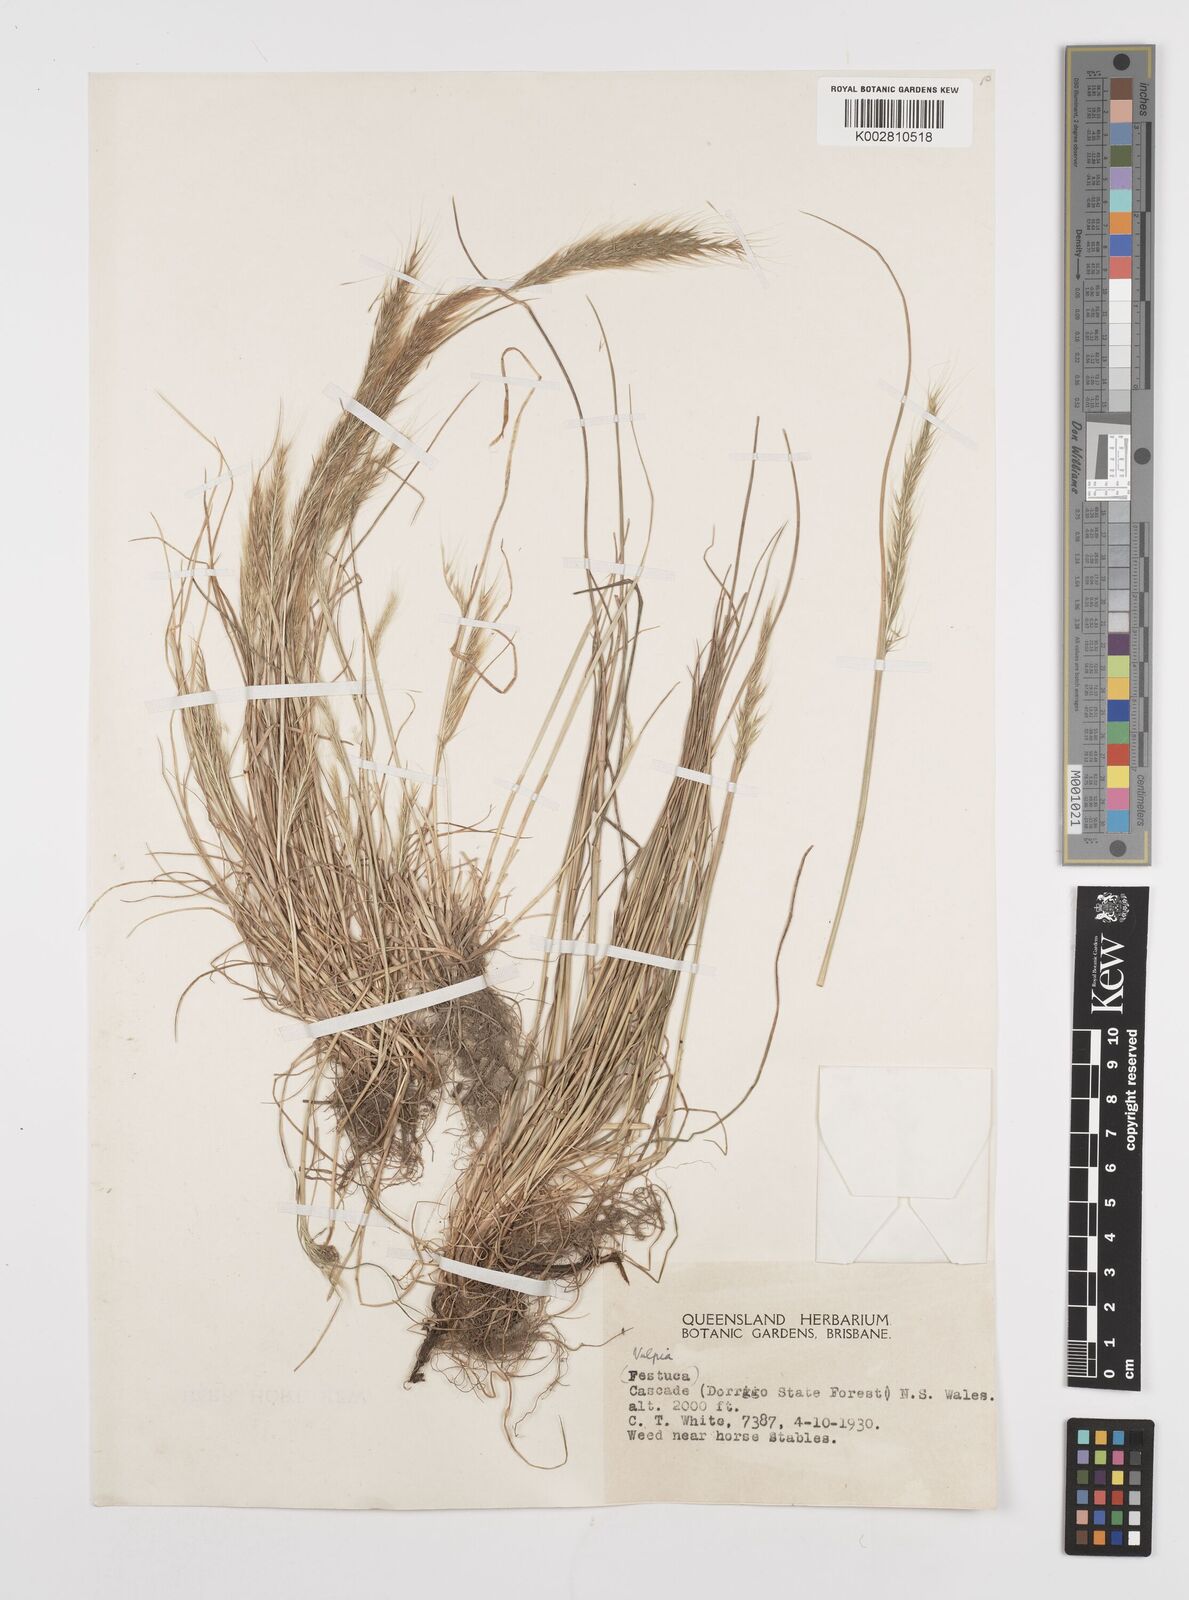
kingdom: Plantae
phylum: Tracheophyta
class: Liliopsida
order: Poales
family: Poaceae
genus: Festuca
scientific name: Festuca myuros
